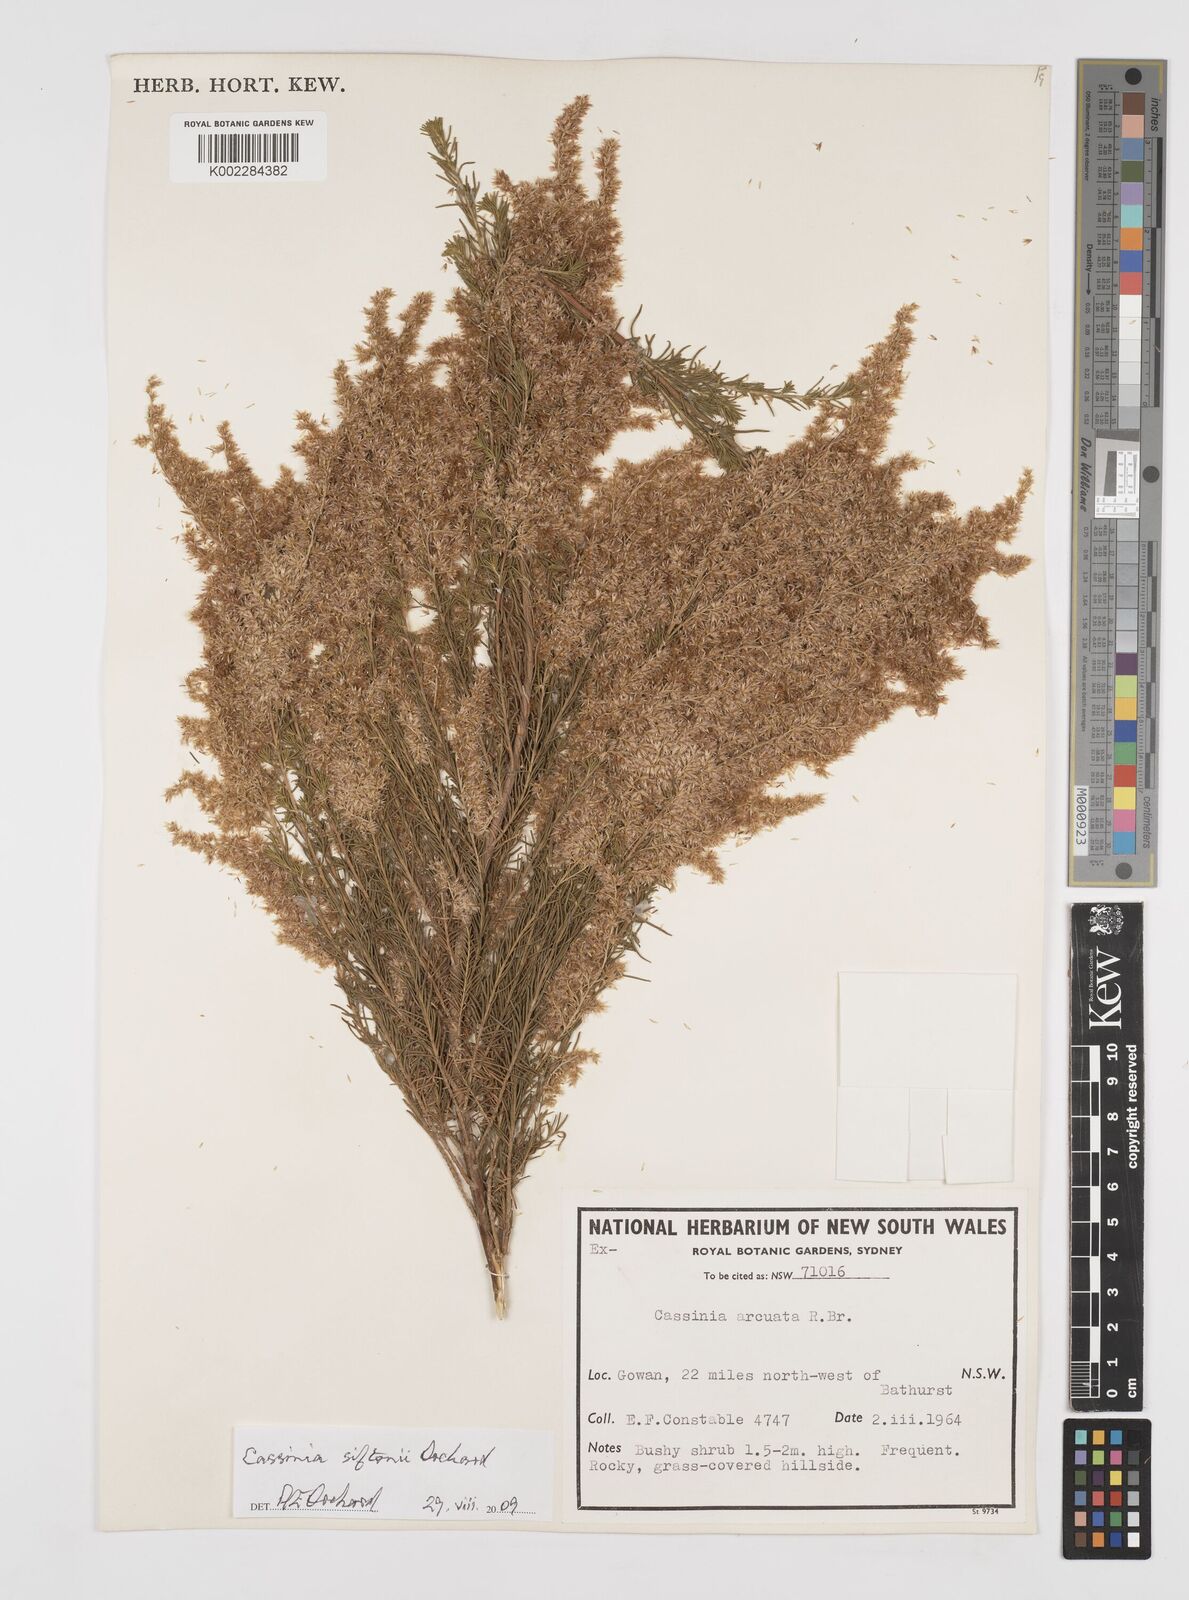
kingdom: Plantae
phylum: Tracheophyta
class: Magnoliopsida
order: Asterales
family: Asteraceae
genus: Cassinia
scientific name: Cassinia arcuata
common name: Chineseshrub
